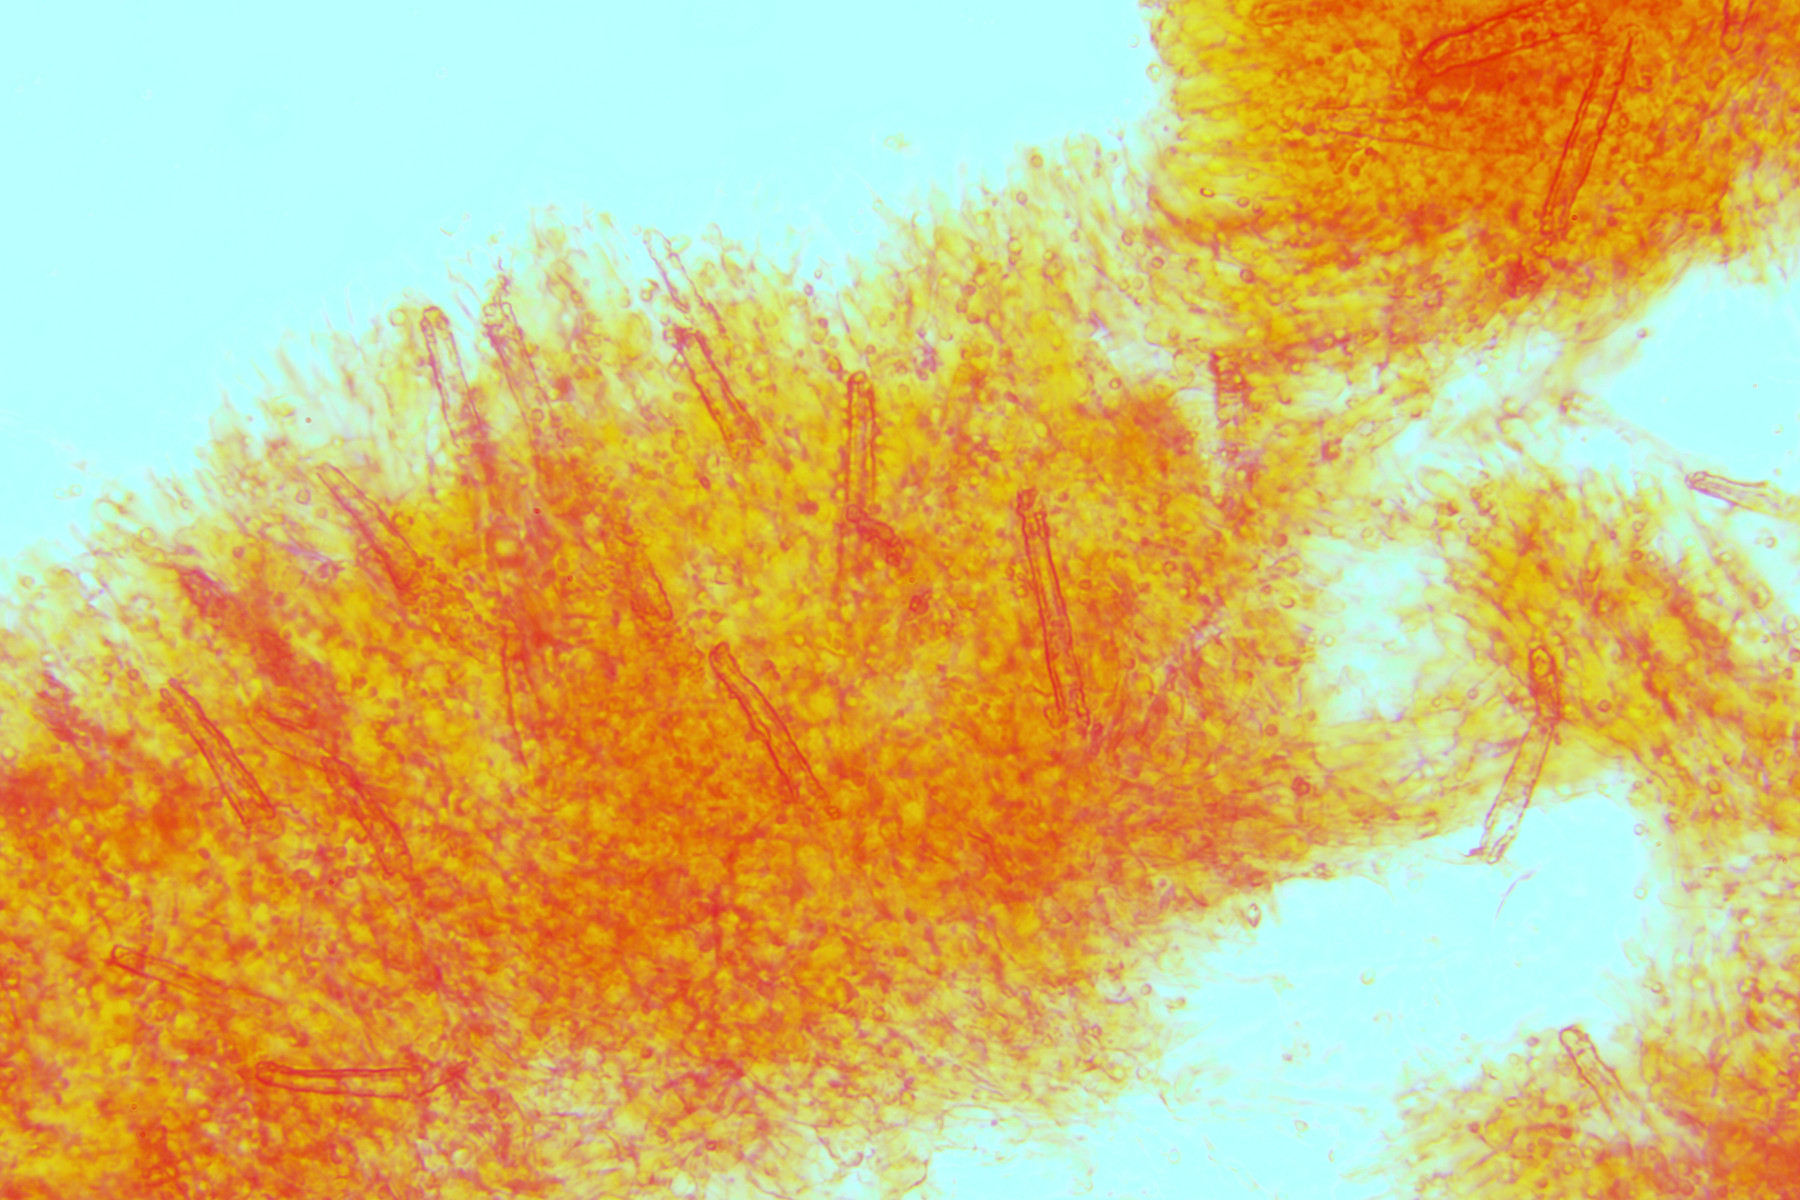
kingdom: Fungi
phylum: Basidiomycota
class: Agaricomycetes
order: Polyporales
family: Phanerochaetaceae
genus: Phanerochaete
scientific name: Phanerochaete velutina
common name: dunet randtråd
